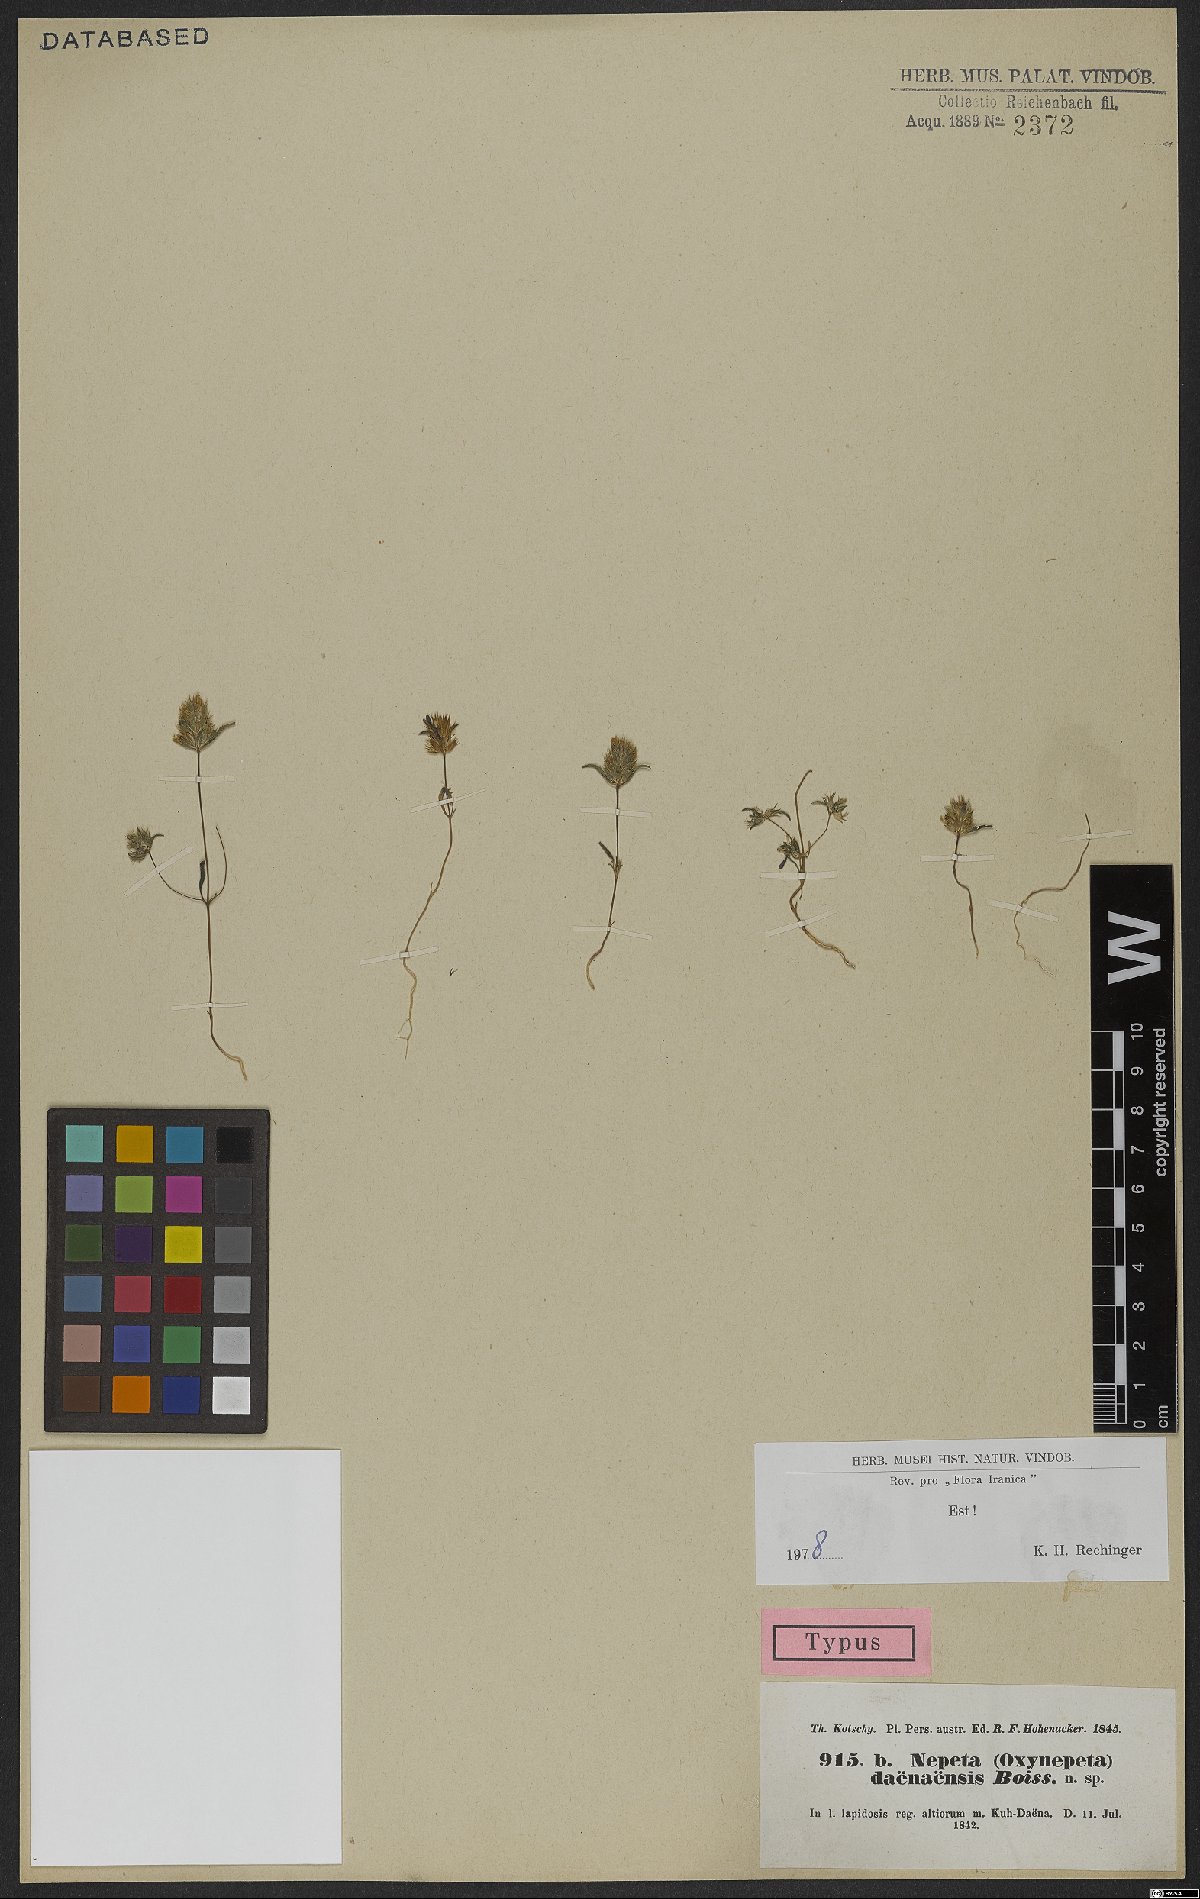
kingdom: Plantae
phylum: Tracheophyta
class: Magnoliopsida
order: Lamiales
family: Lamiaceae
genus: Nepeta
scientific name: Nepeta daenensis
